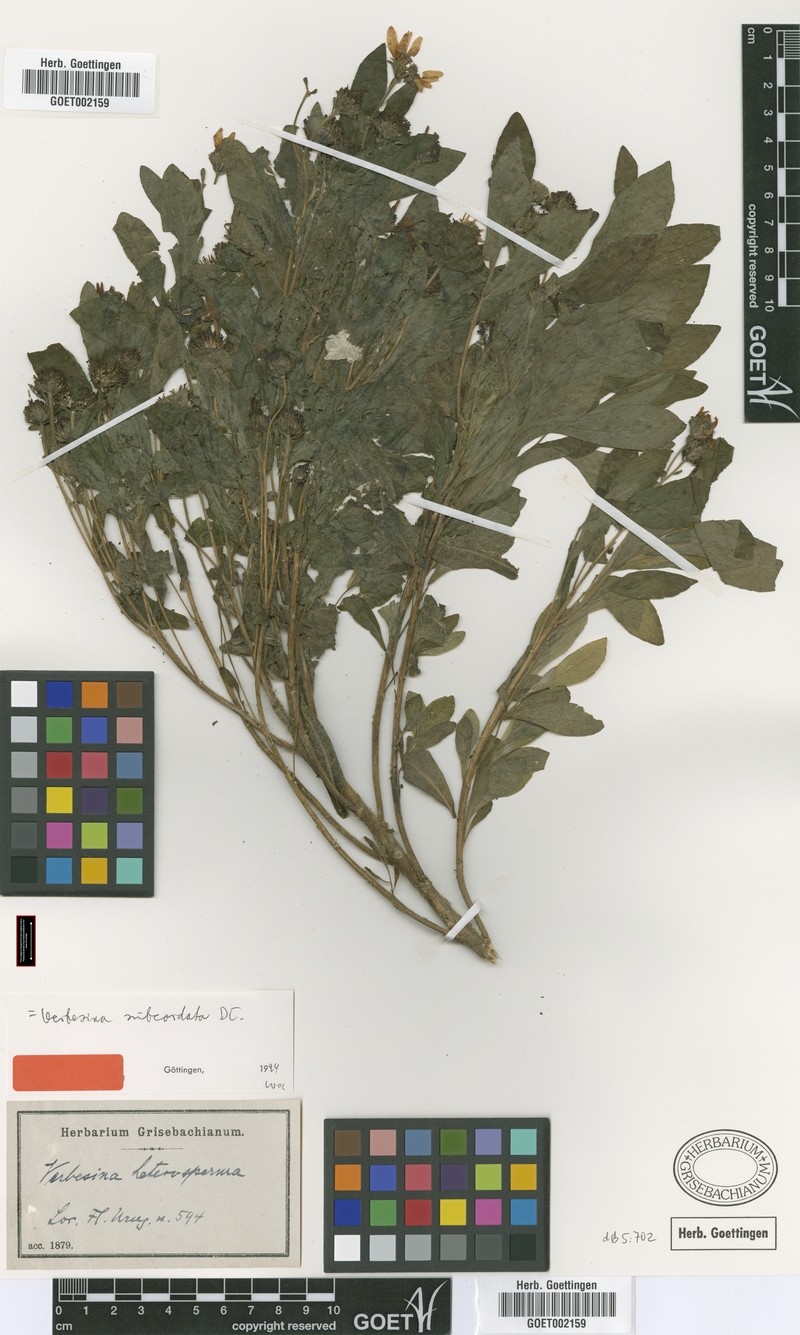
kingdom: Plantae
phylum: Tracheophyta
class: Magnoliopsida
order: Asterales
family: Asteraceae
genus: Verbesina
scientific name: Verbesina subcordata
